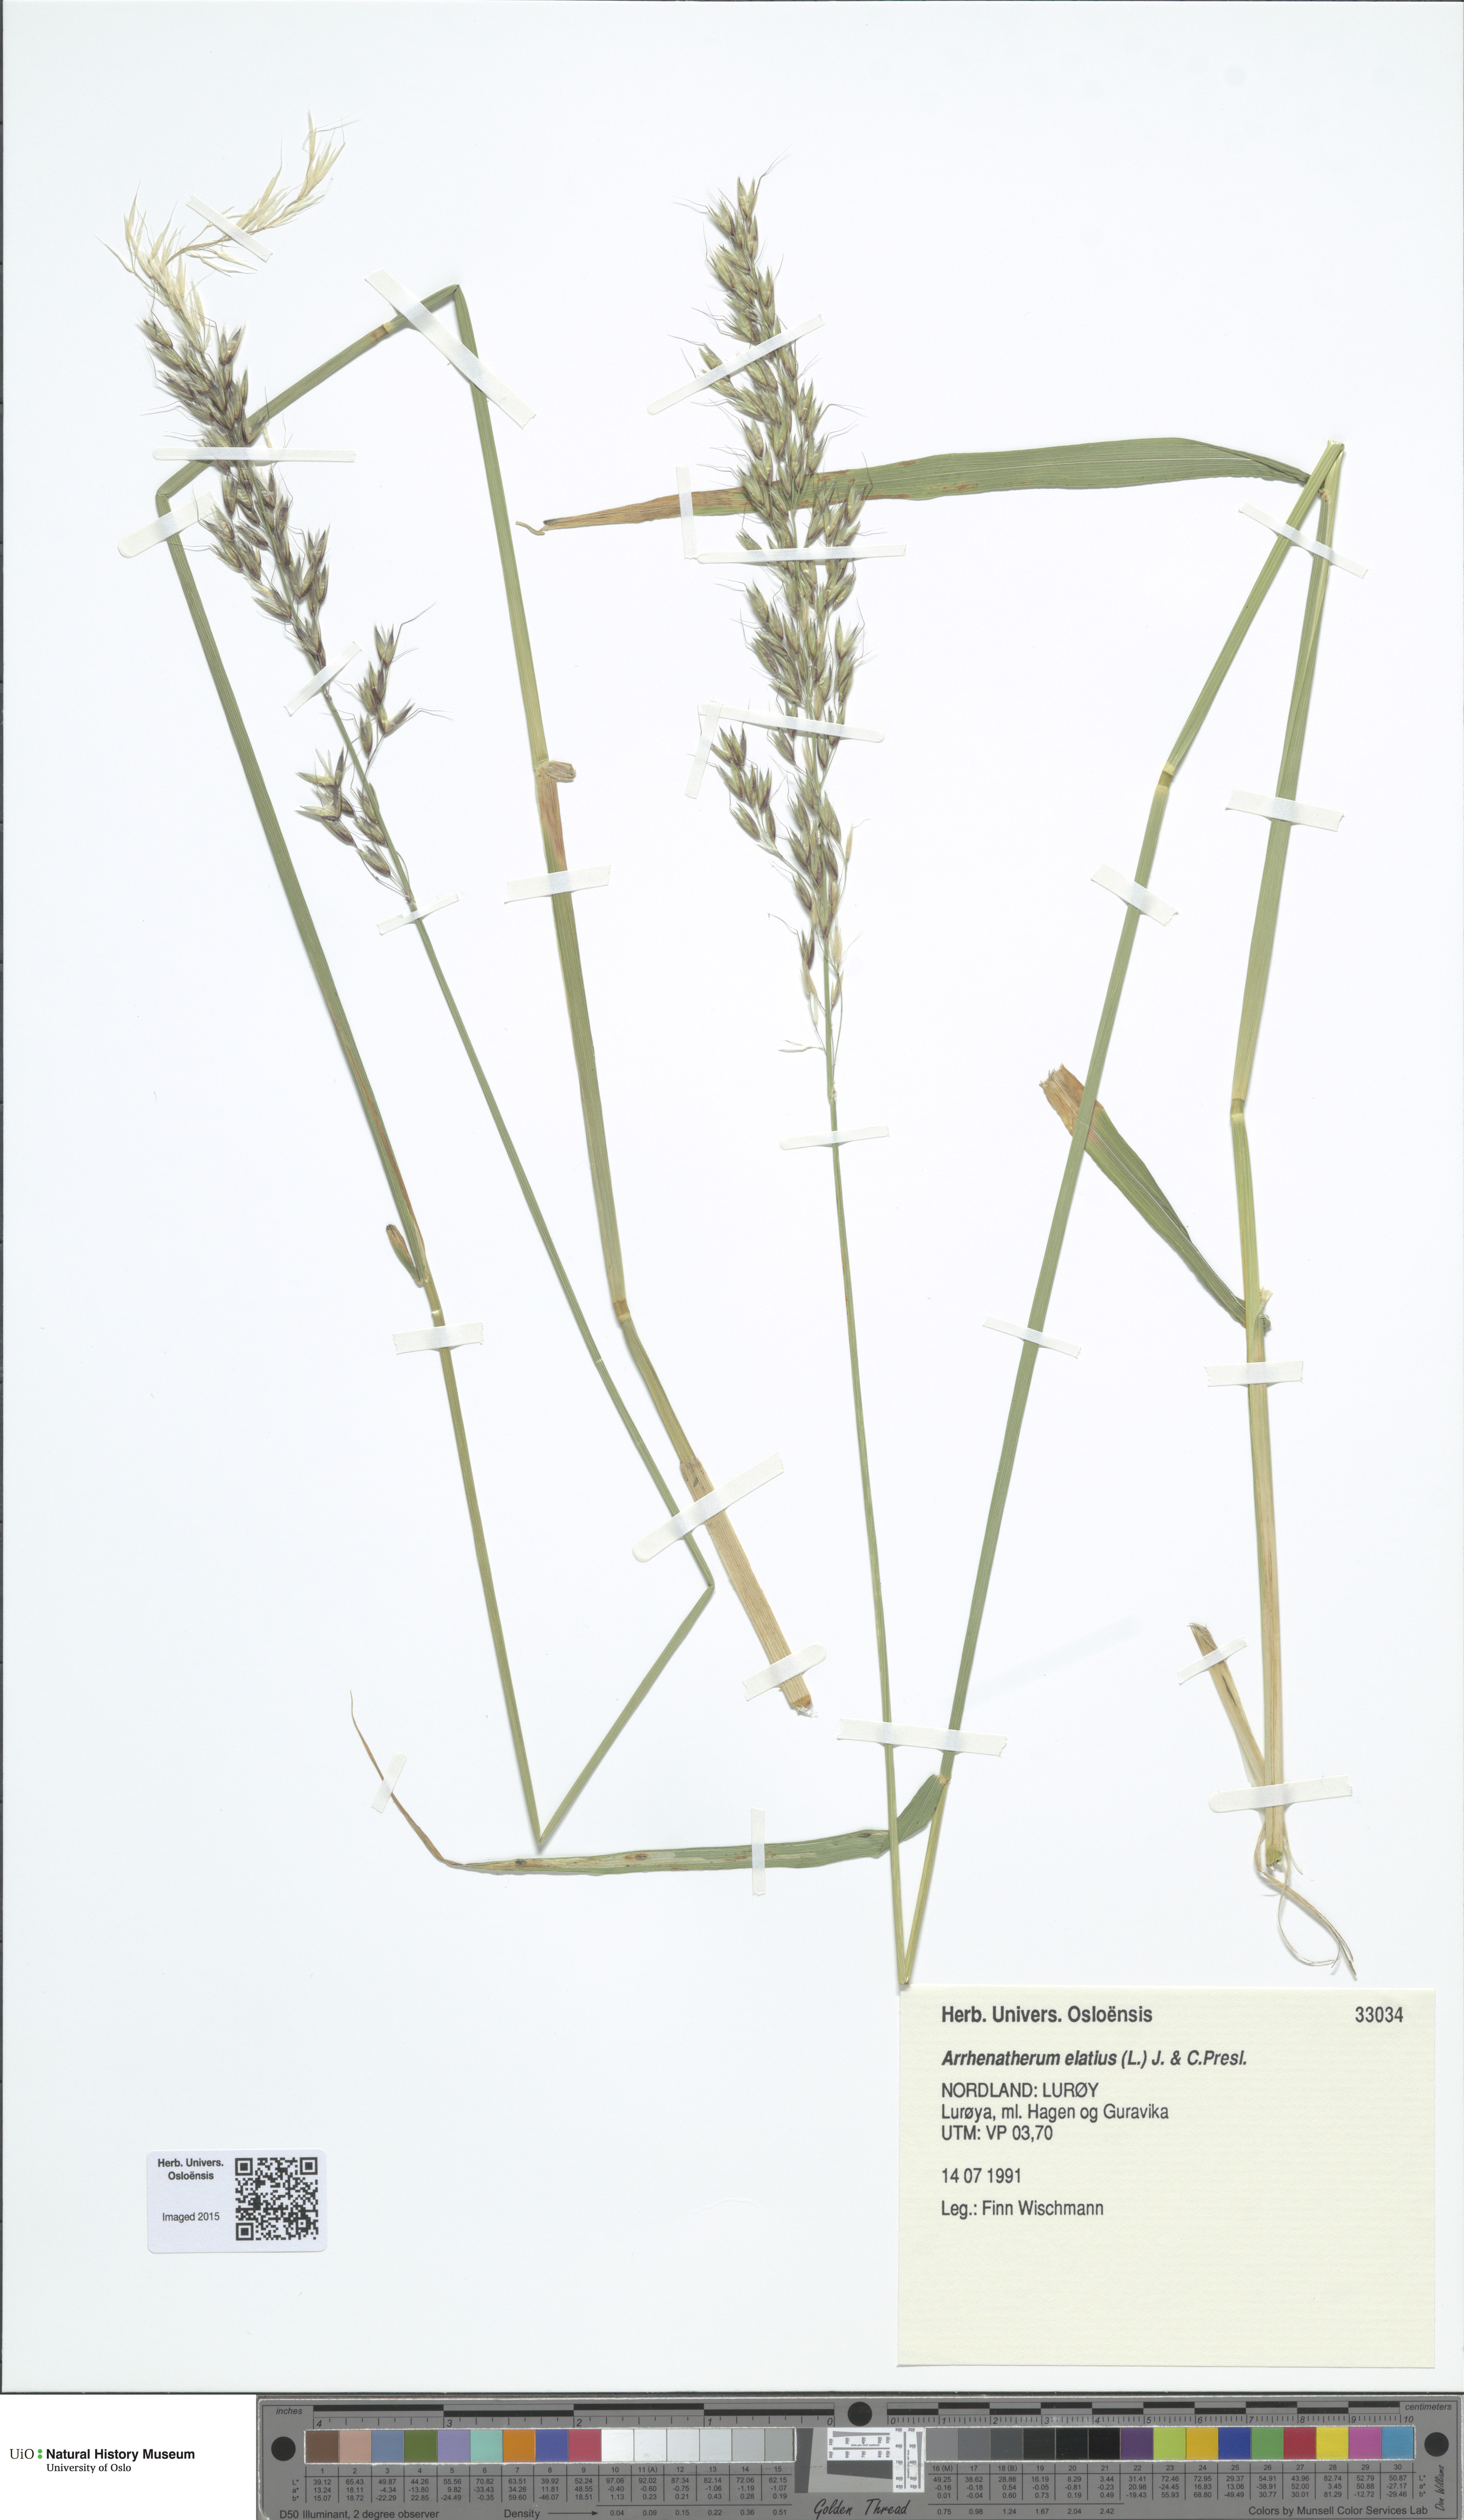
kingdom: Plantae
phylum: Tracheophyta
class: Liliopsida
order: Poales
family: Poaceae
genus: Arrhenatherum
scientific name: Arrhenatherum elatius
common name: Tall oatgrass
